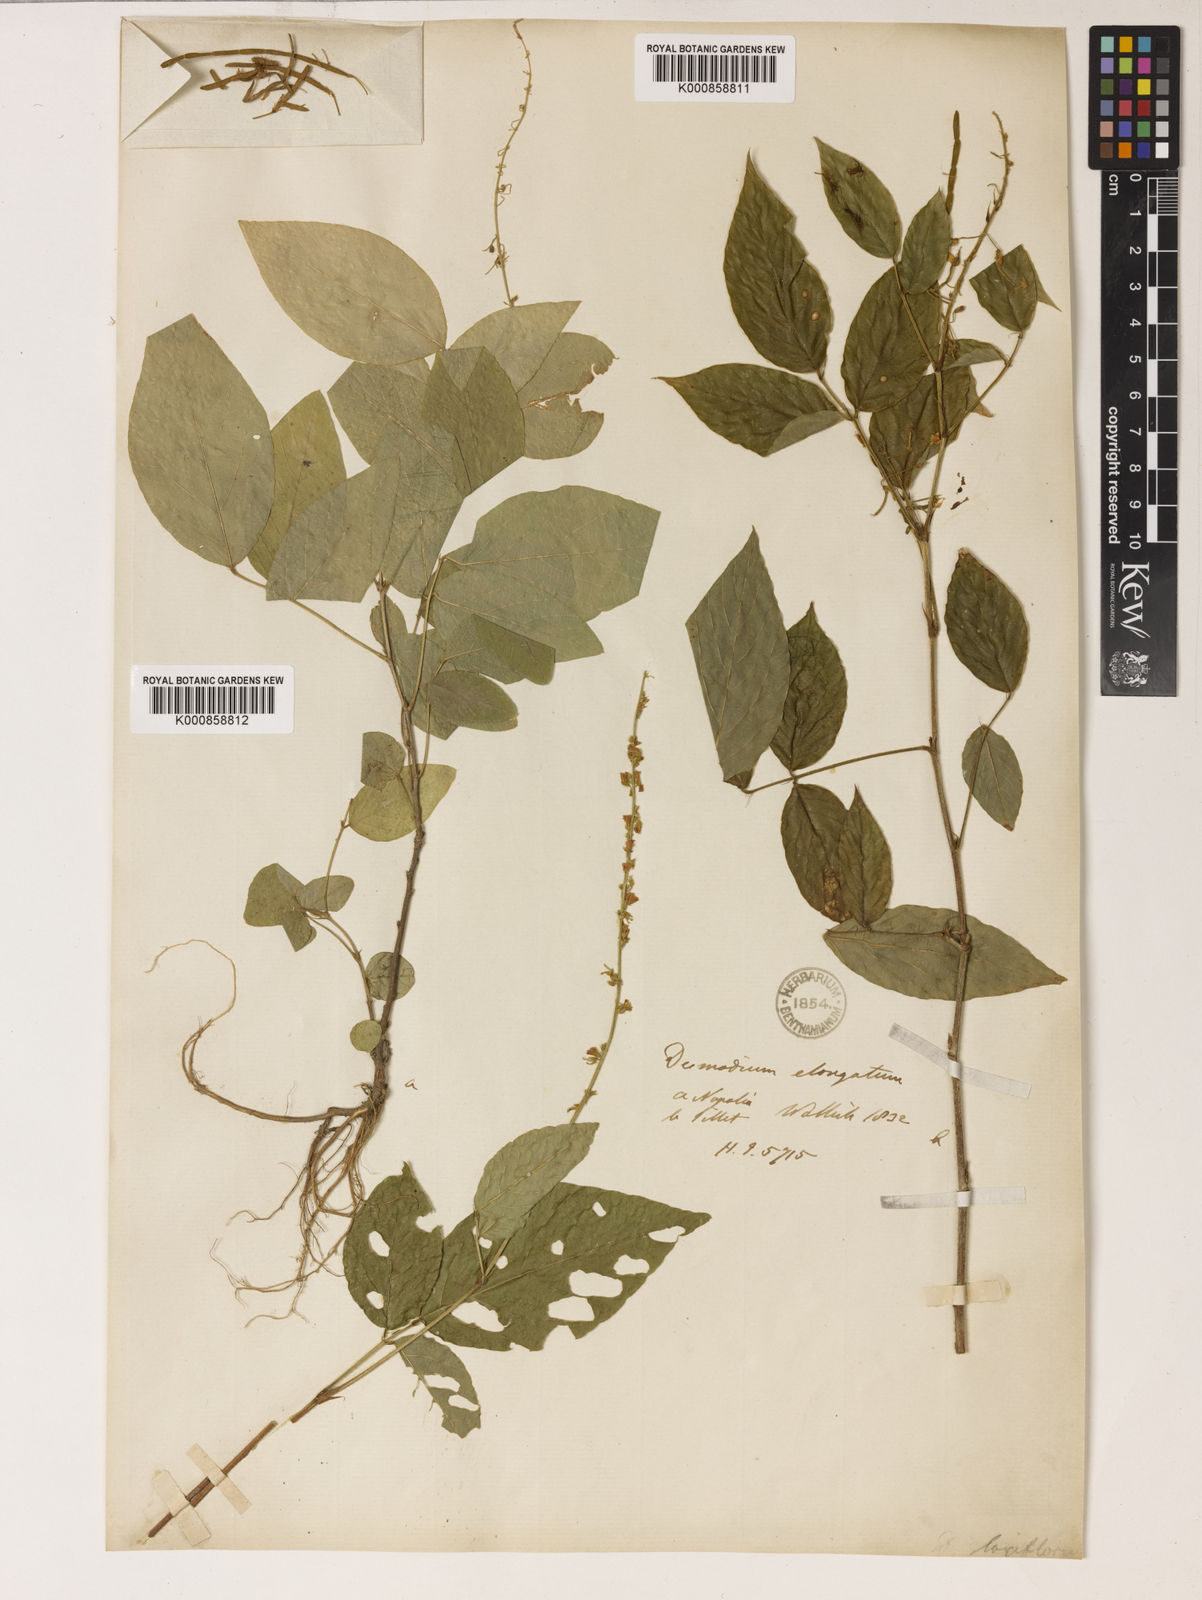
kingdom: Plantae
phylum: Tracheophyta
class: Magnoliopsida
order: Fabales
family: Fabaceae
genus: Sohmaea
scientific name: Sohmaea laxiflora
